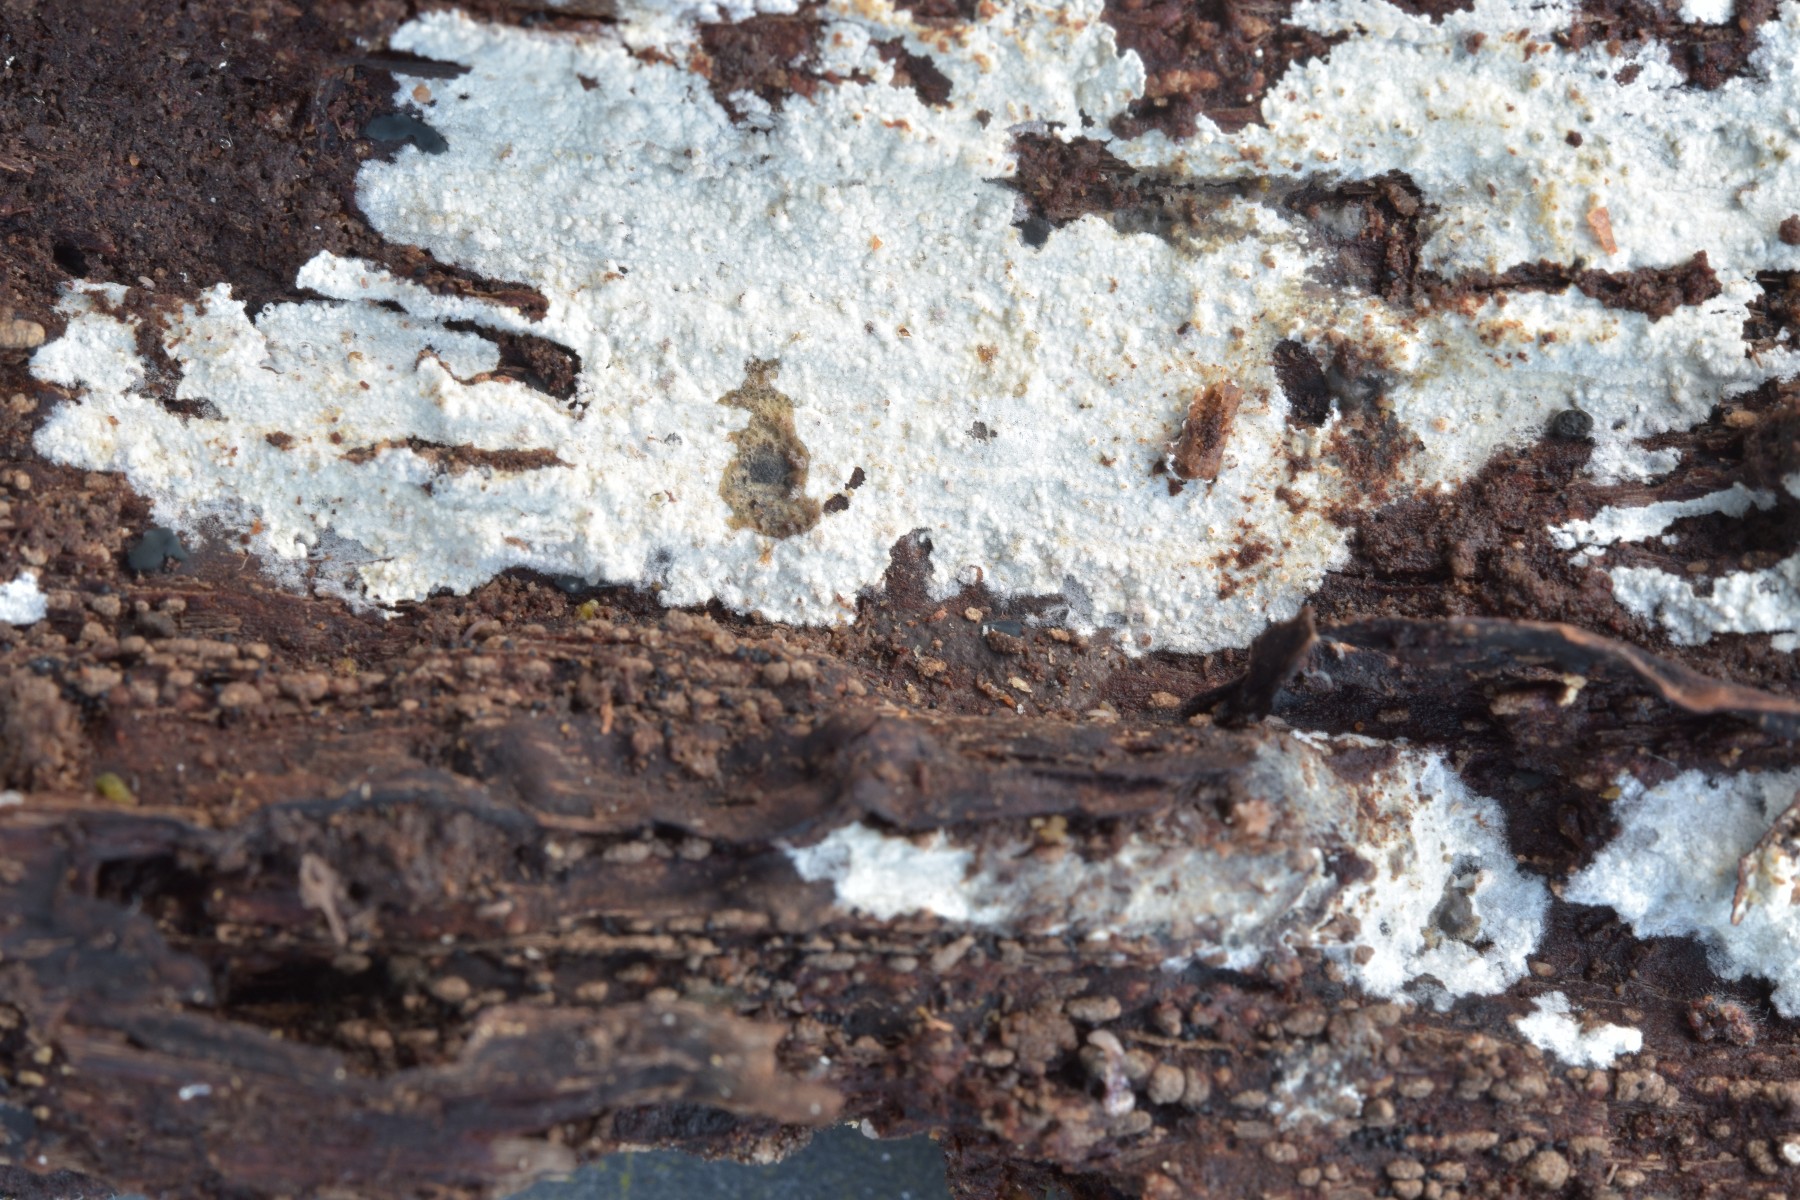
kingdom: Fungi
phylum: Basidiomycota
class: Agaricomycetes
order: Hymenochaetales
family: Hyphodontiaceae
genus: Hyphodontia
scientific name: Hyphodontia alutaria
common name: flaskerenser-nålehinde
